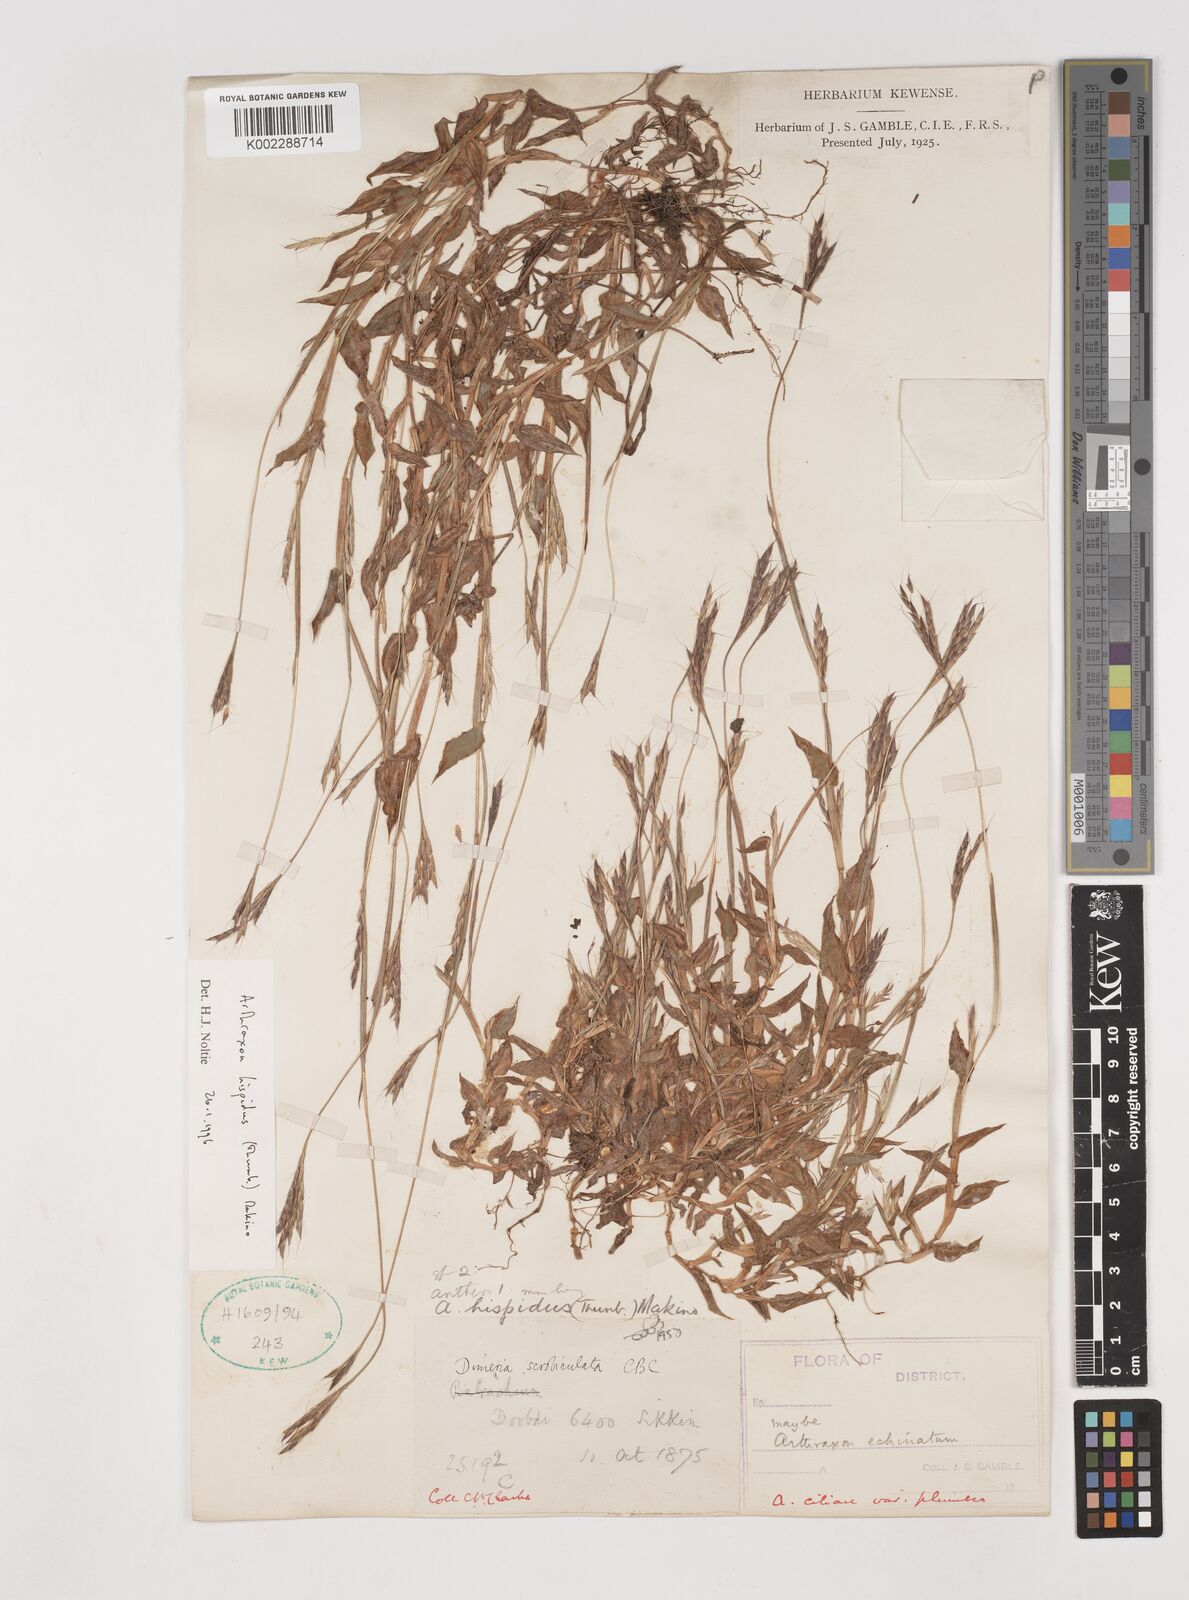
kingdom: Plantae
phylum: Tracheophyta
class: Liliopsida
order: Poales
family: Poaceae
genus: Arthraxon
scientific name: Arthraxon hispidus
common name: Small carpgrass
